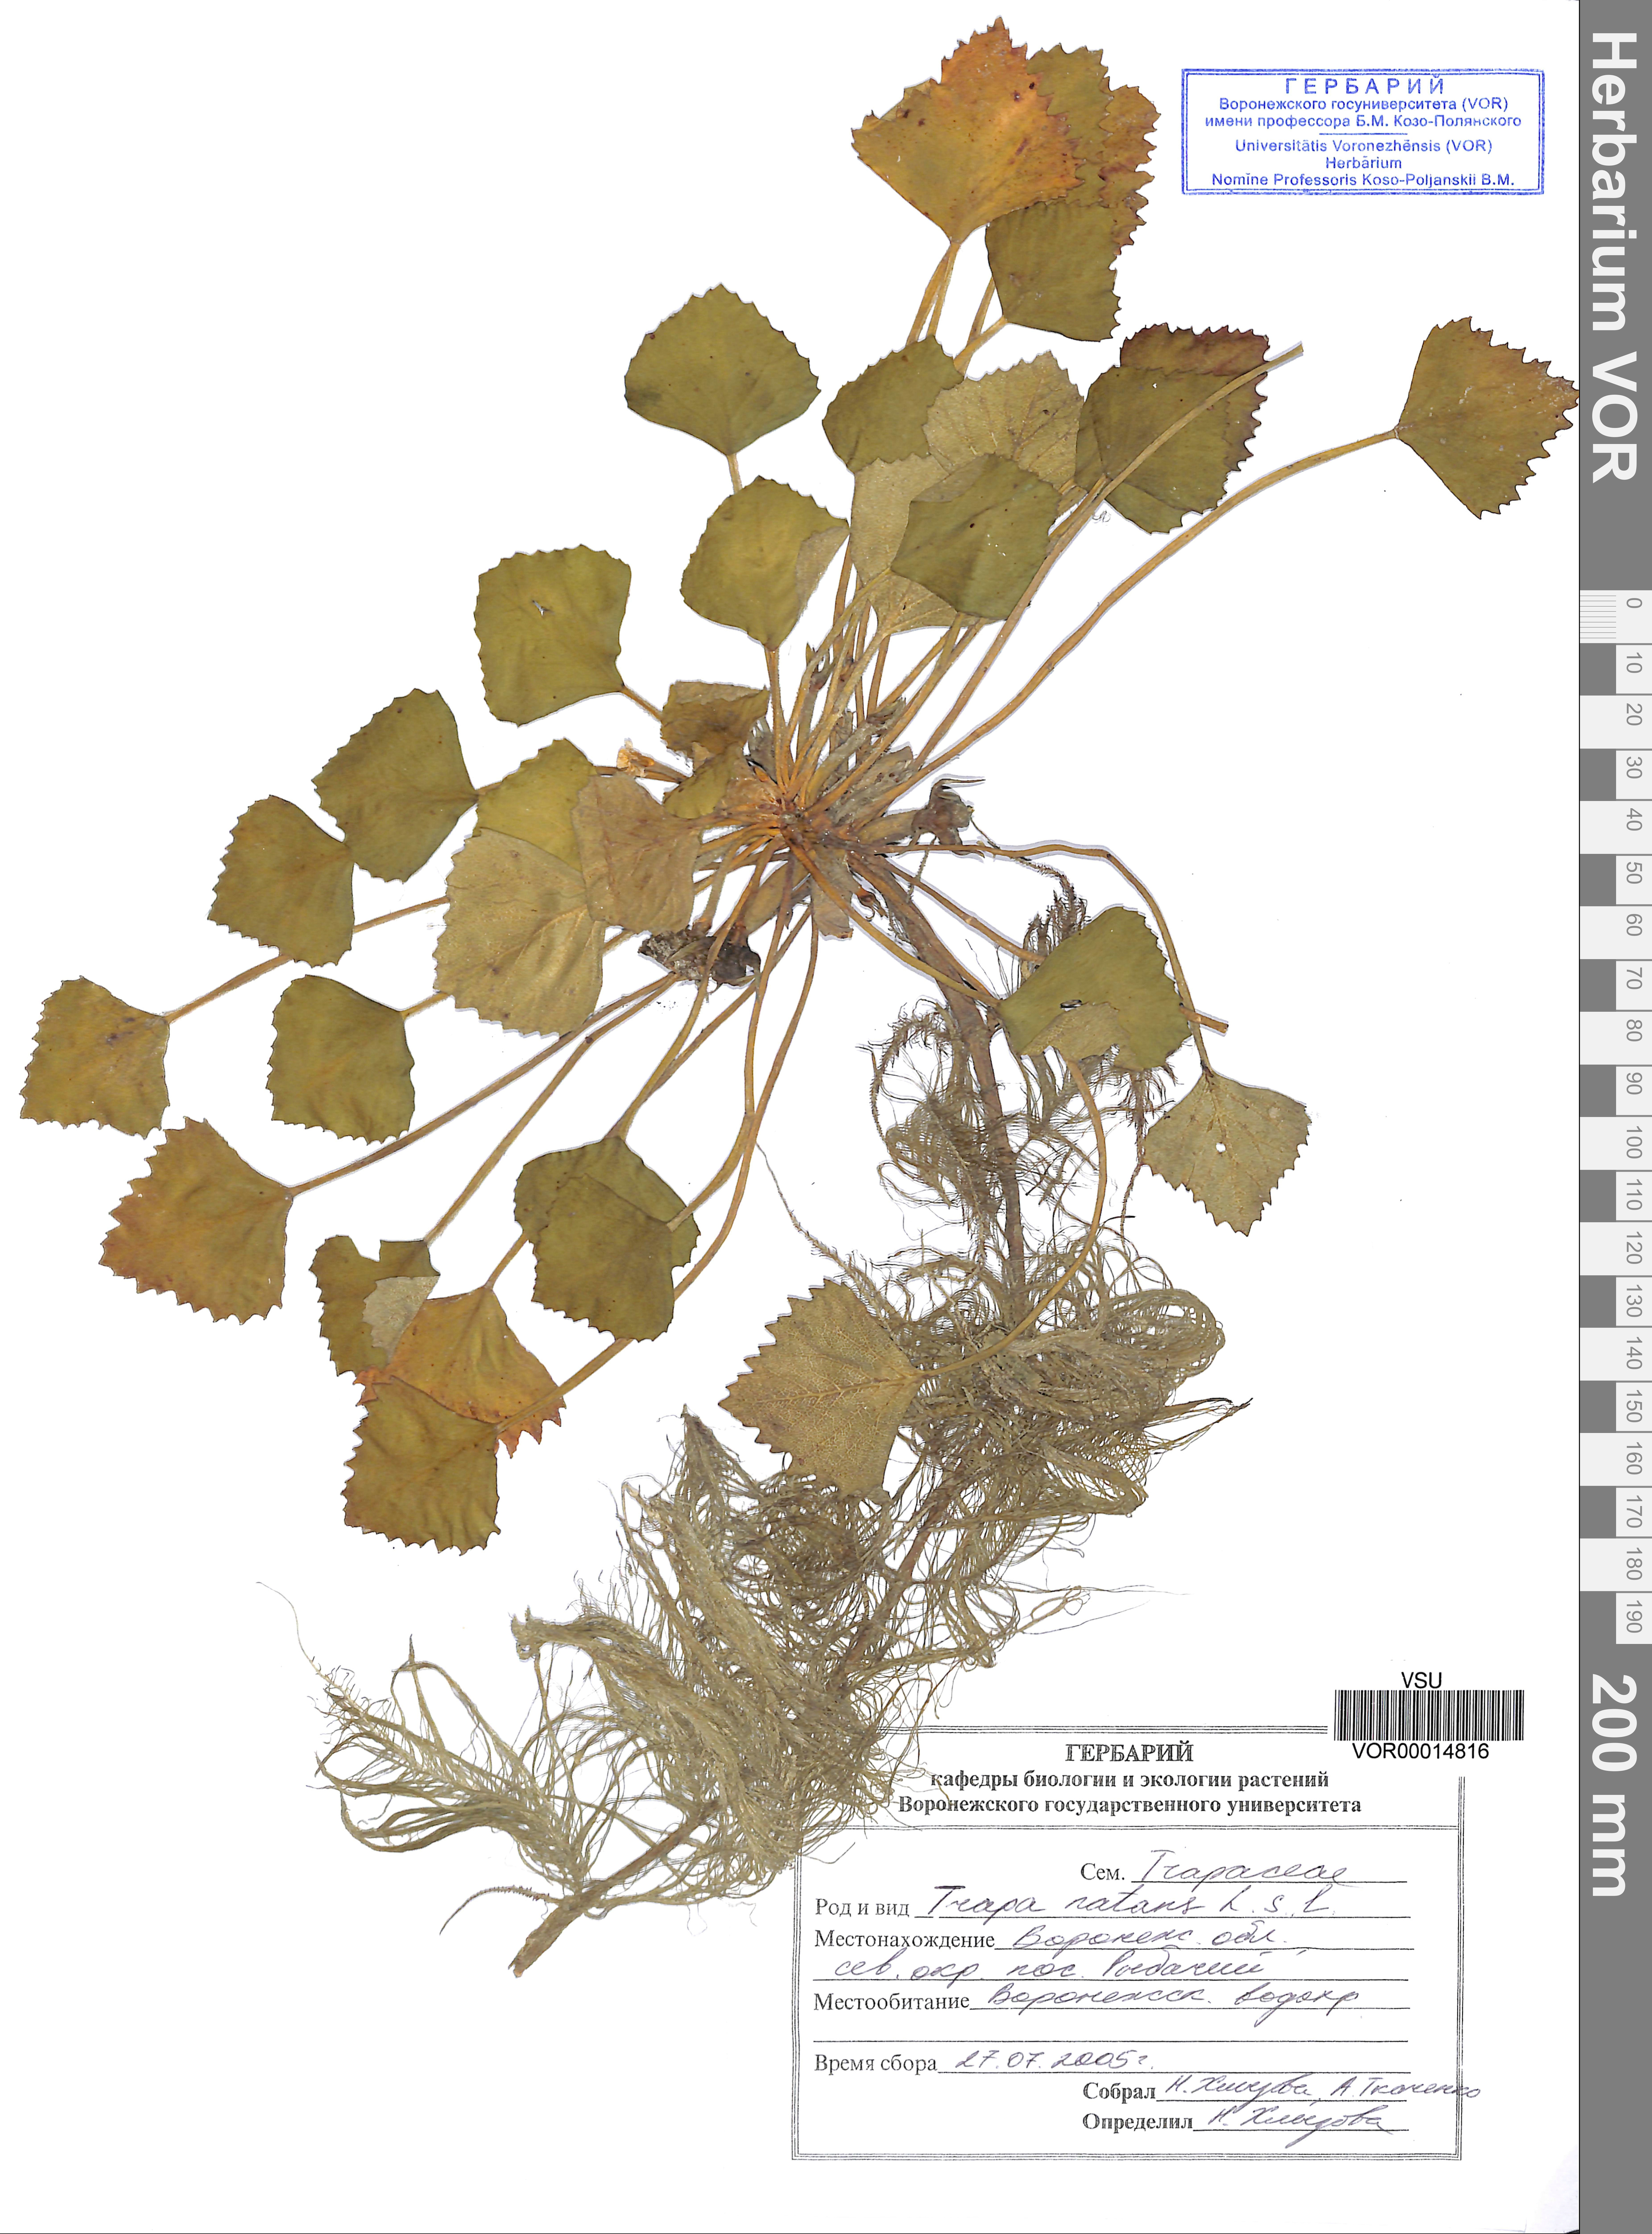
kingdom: Plantae
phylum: Tracheophyta
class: Magnoliopsida
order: Myrtales
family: Lythraceae
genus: Trapa
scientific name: Trapa natans
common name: Water chestnut
